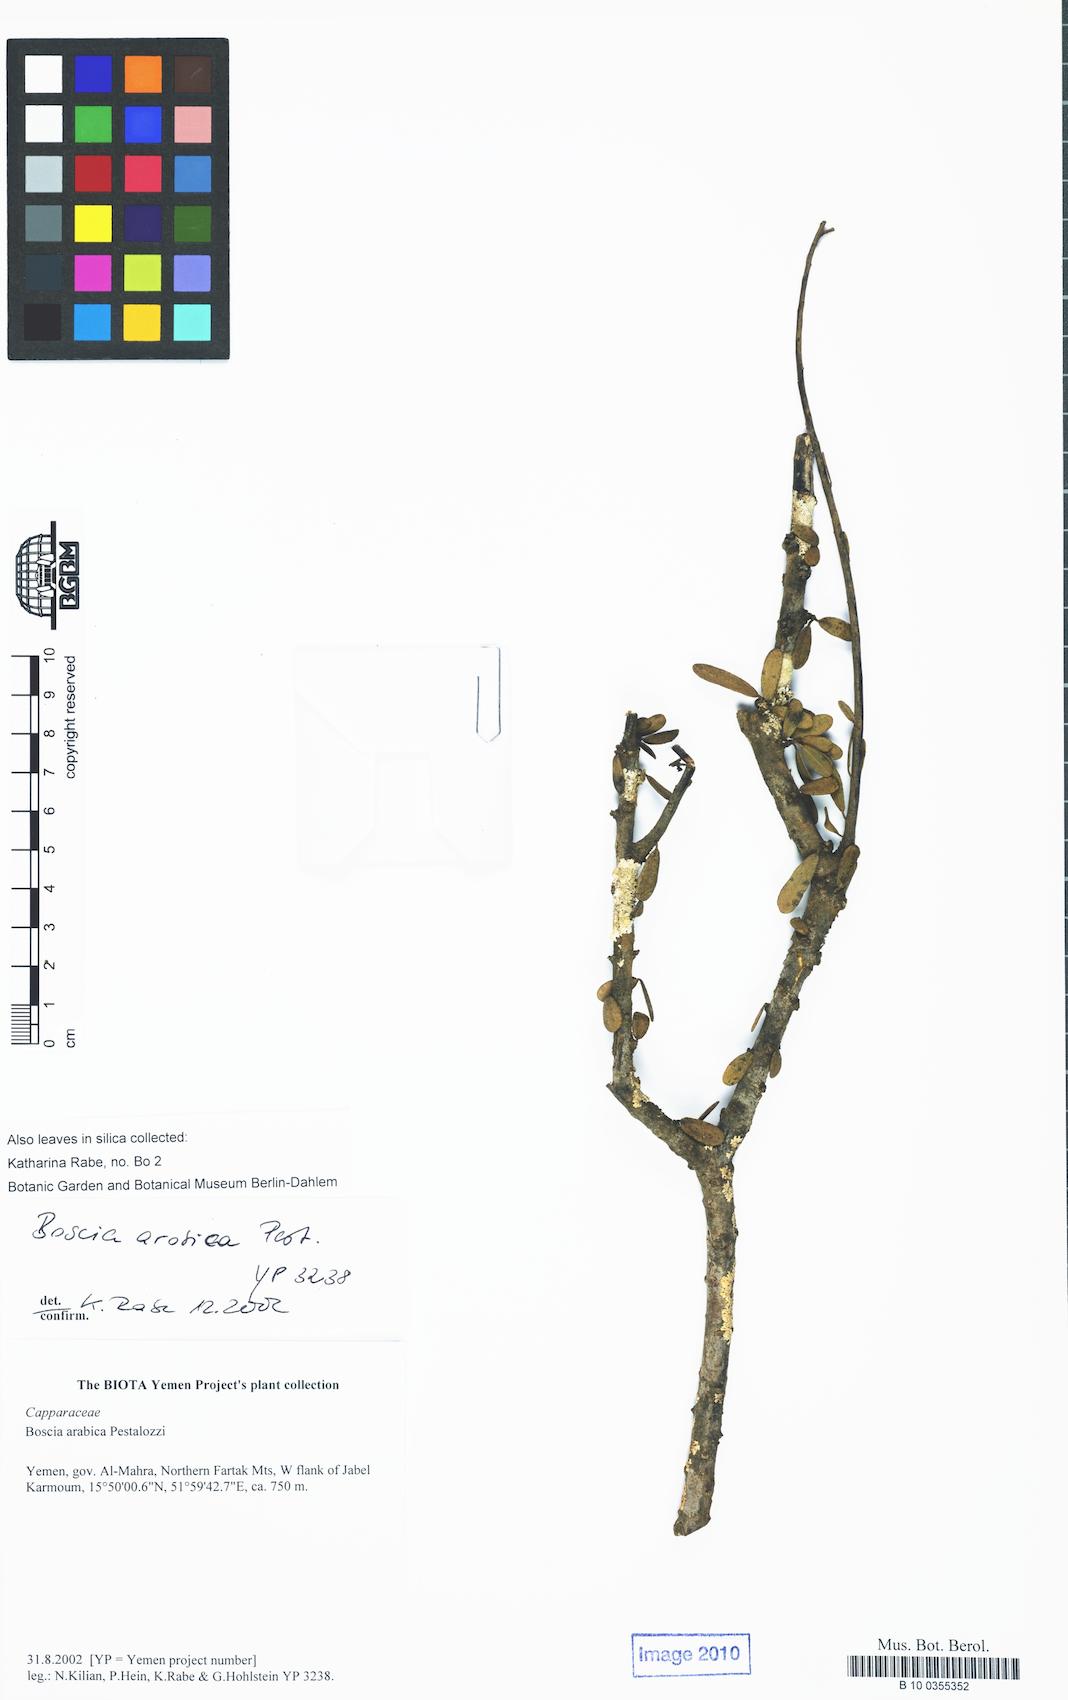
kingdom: Plantae
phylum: Tracheophyta
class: Magnoliopsida
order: Brassicales
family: Capparaceae
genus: Boscia
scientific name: Boscia arabica
